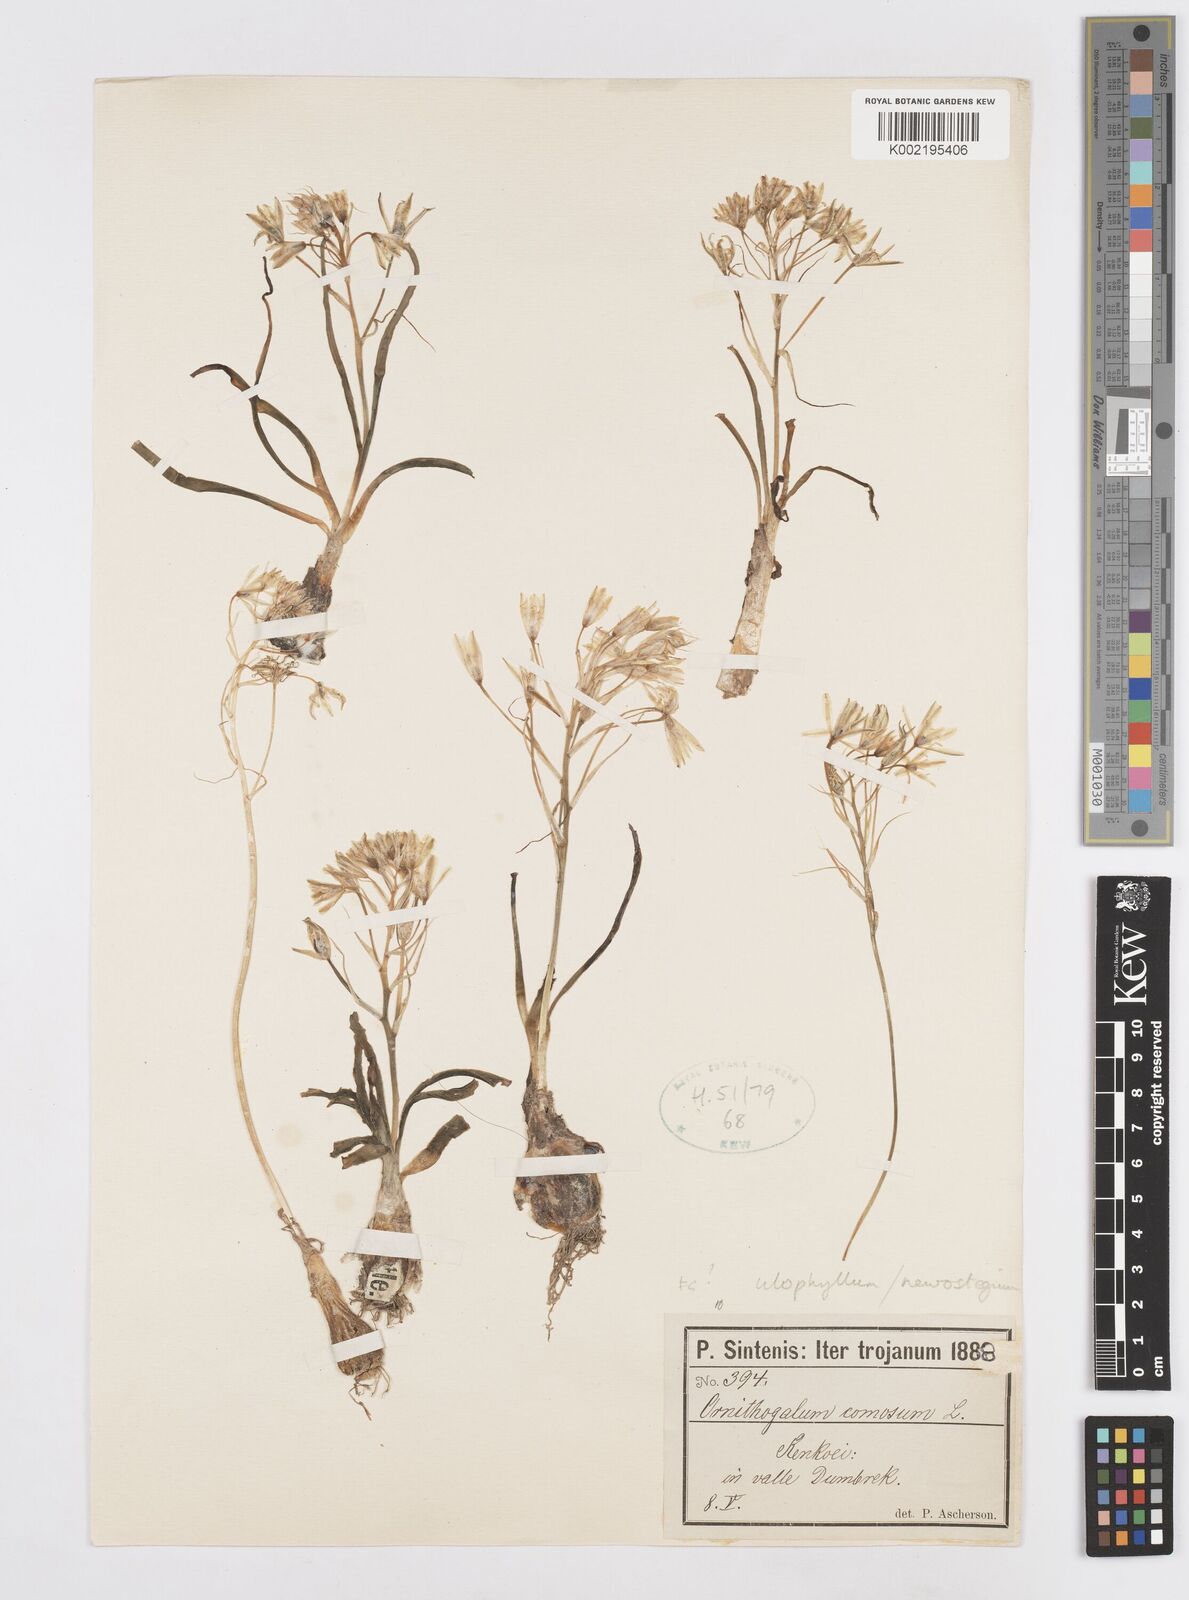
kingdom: Plantae
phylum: Tracheophyta
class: Liliopsida
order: Asparagales
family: Asparagaceae
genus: Ornithogalum
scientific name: Ornithogalum neurostegium
